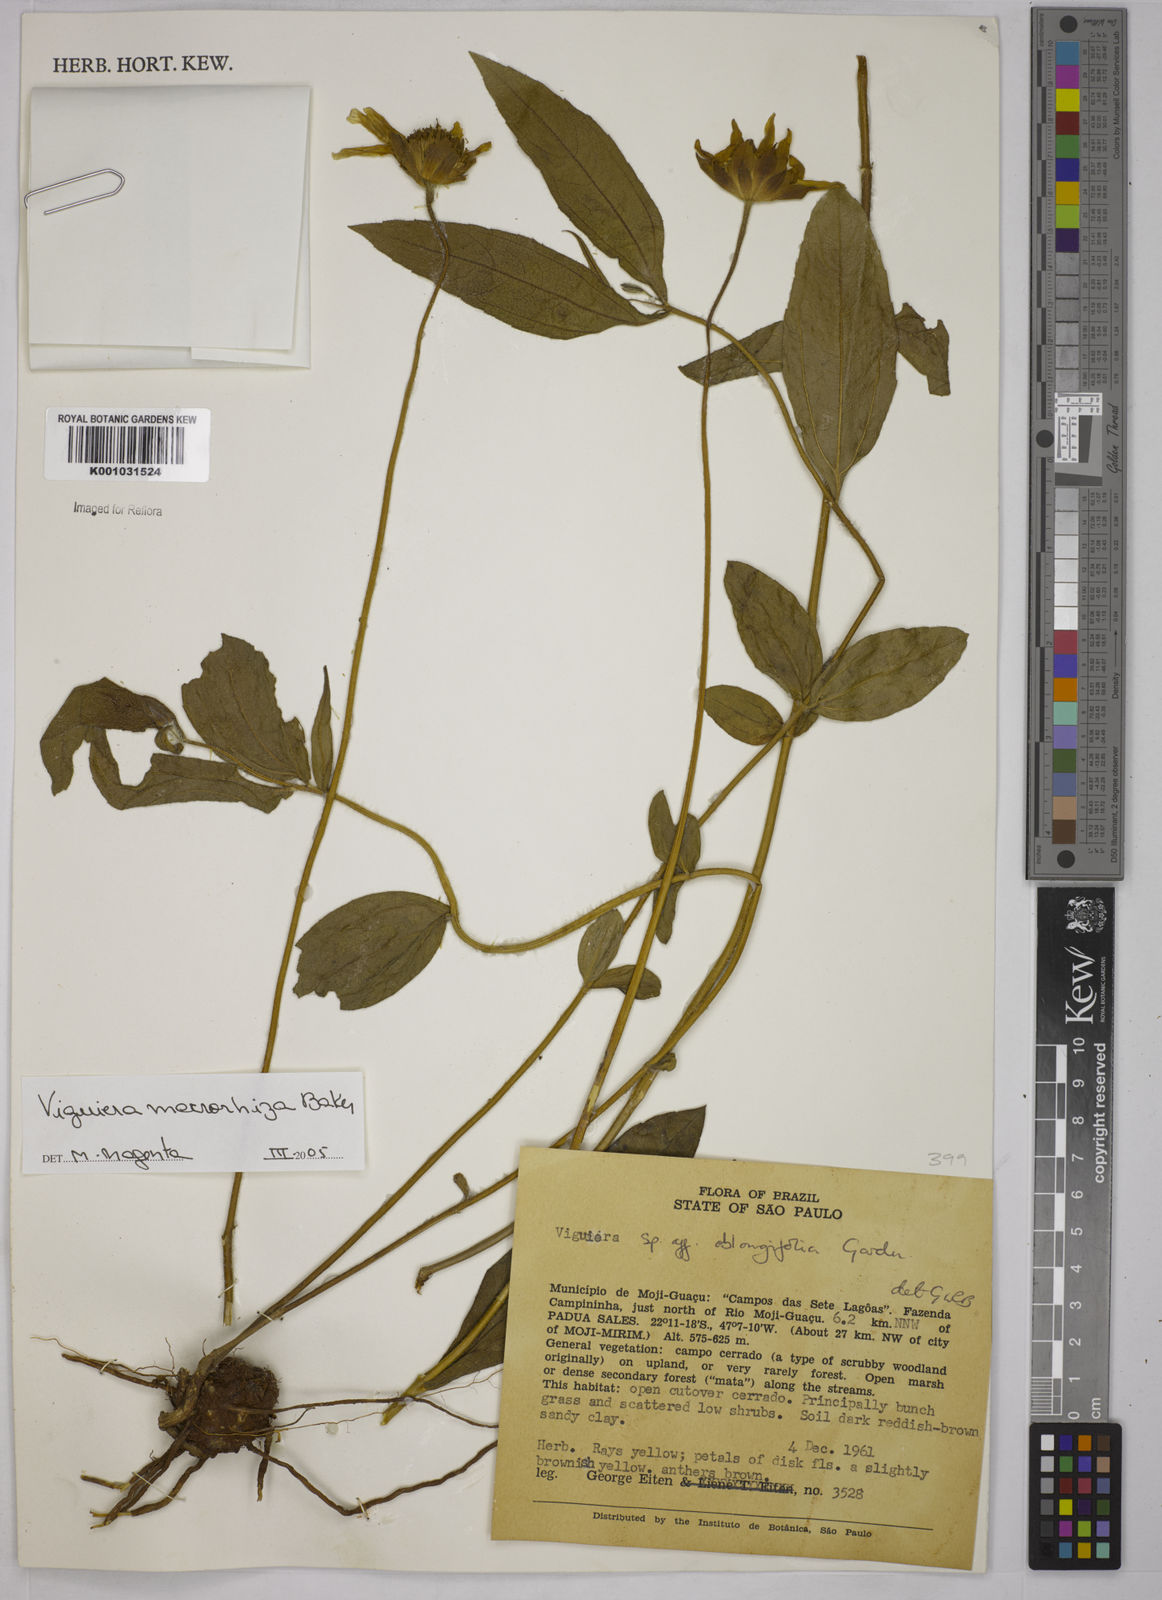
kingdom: Plantae
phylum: Tracheophyta
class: Magnoliopsida
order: Asterales
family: Asteraceae
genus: Aldama
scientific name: Aldama macrorhiza
